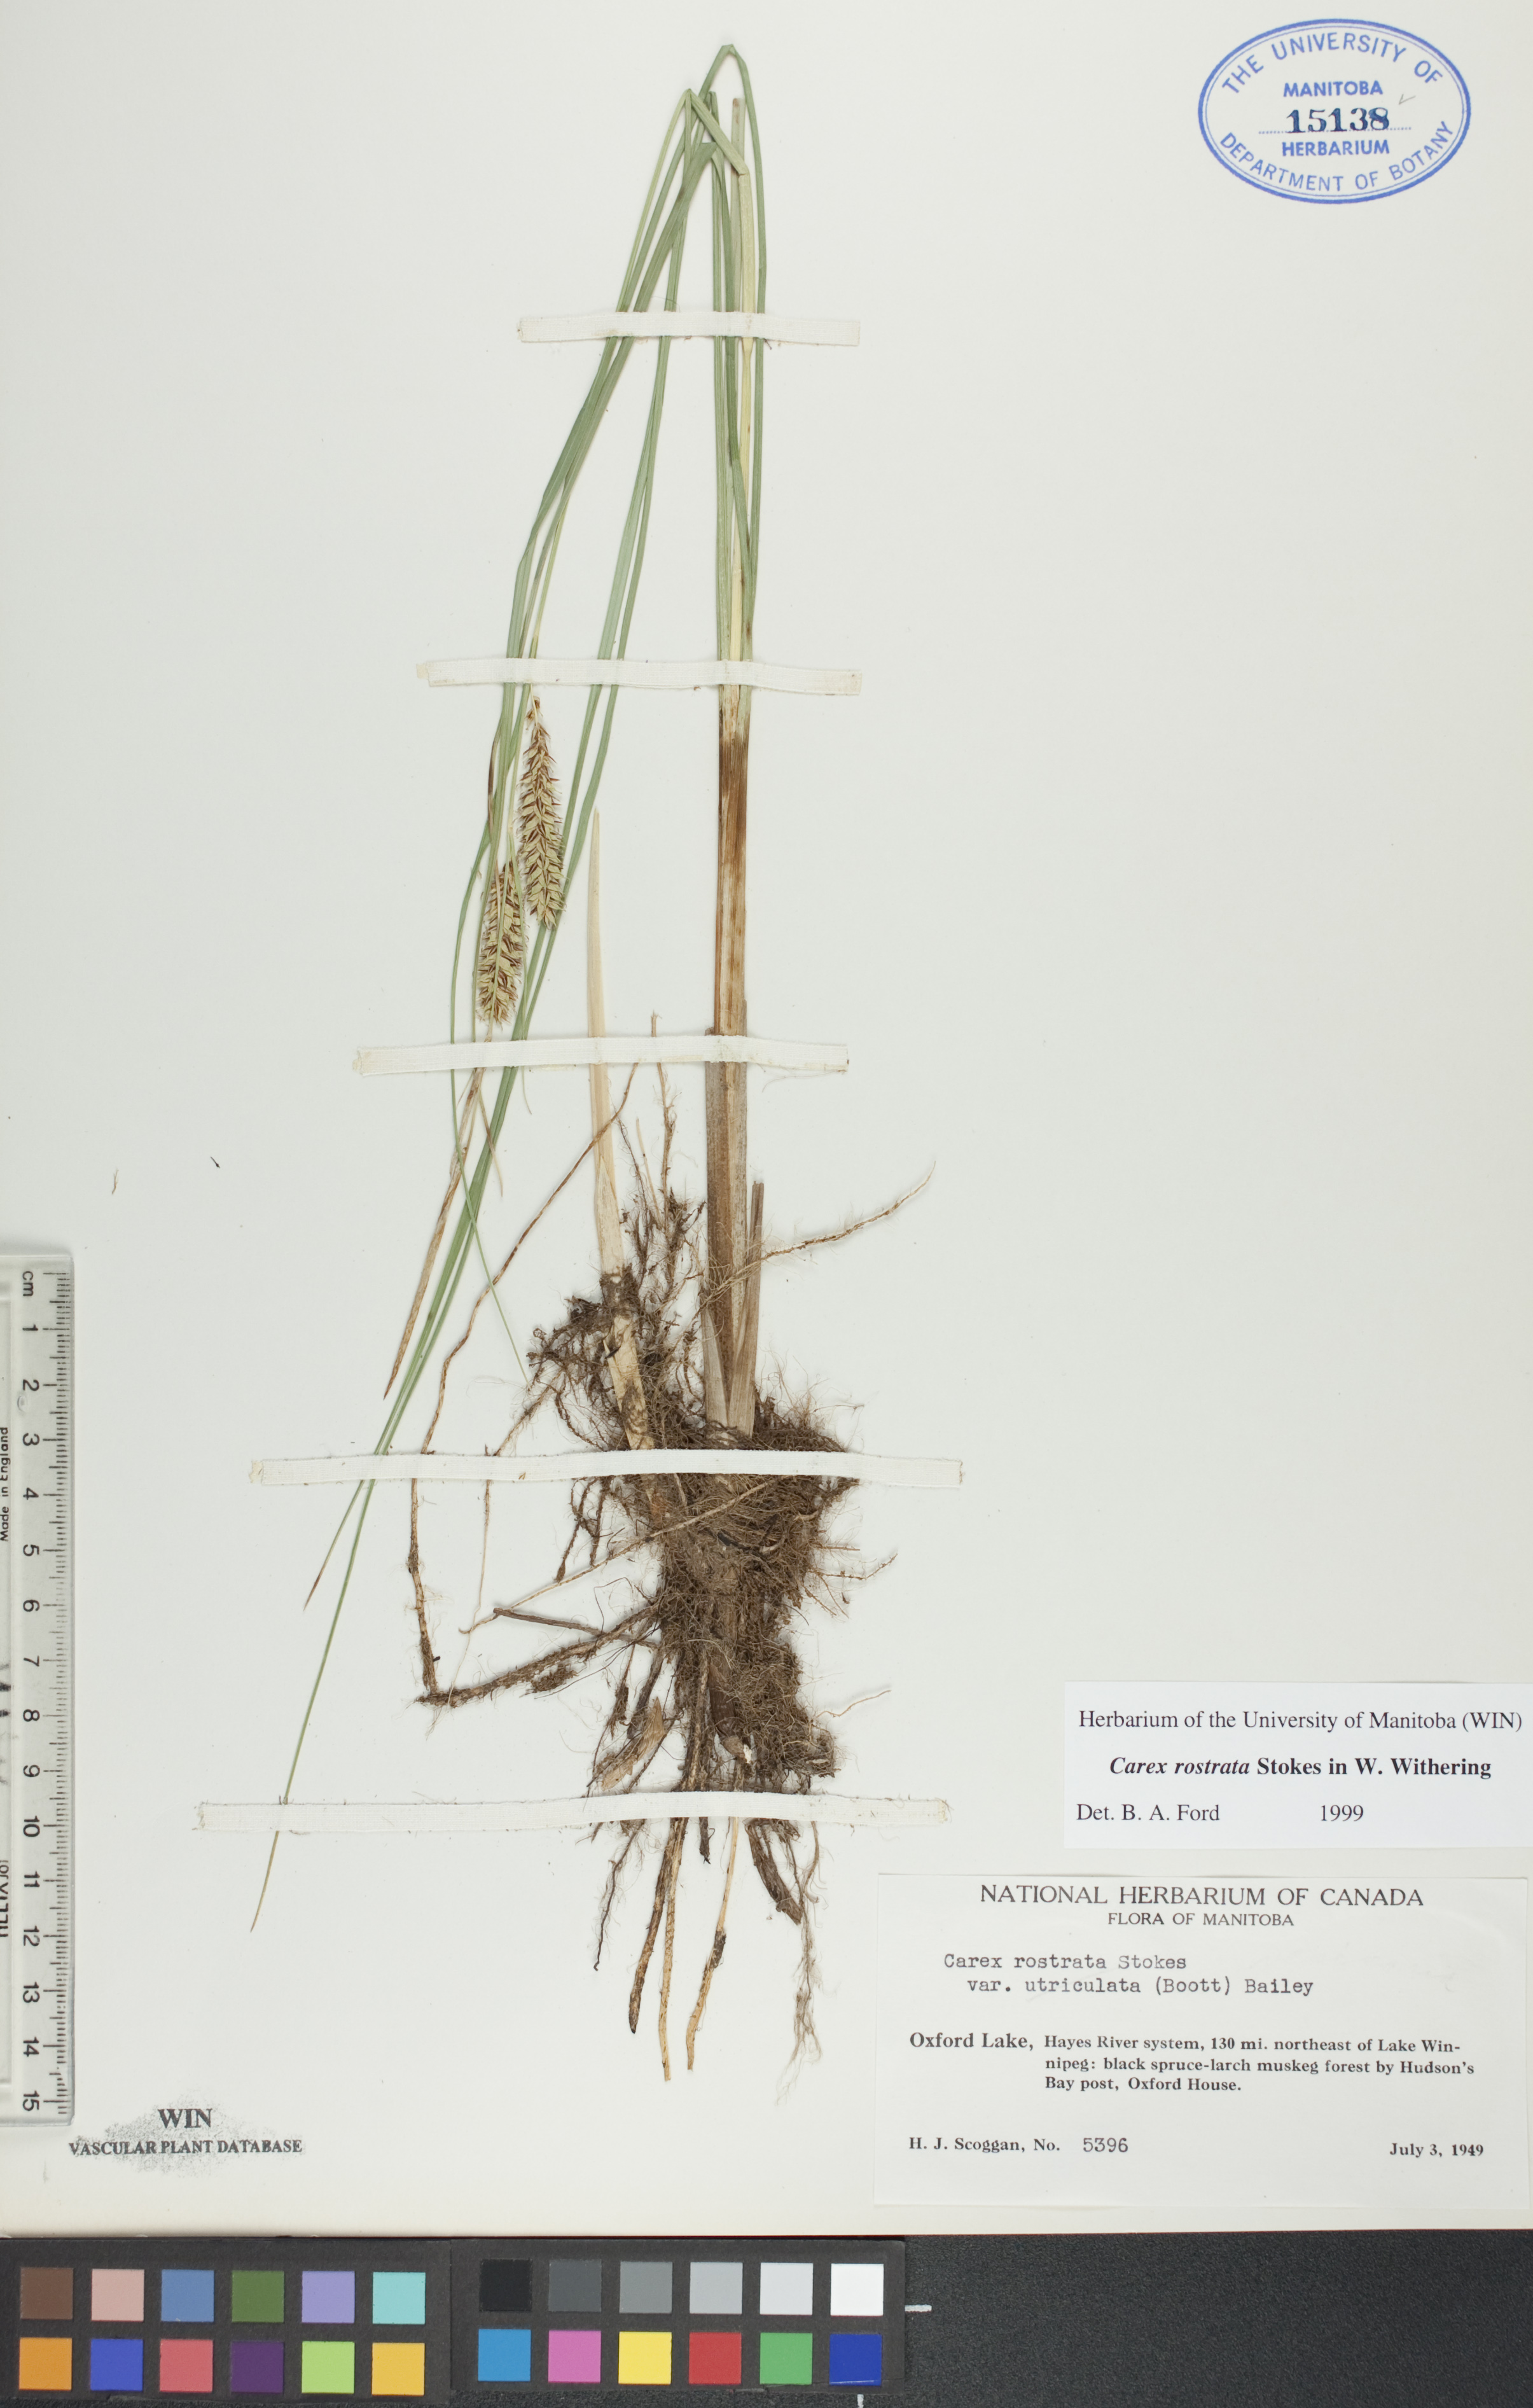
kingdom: Plantae
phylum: Tracheophyta
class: Liliopsida
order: Poales
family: Cyperaceae
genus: Carex
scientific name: Carex rostrata
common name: Bottle sedge
